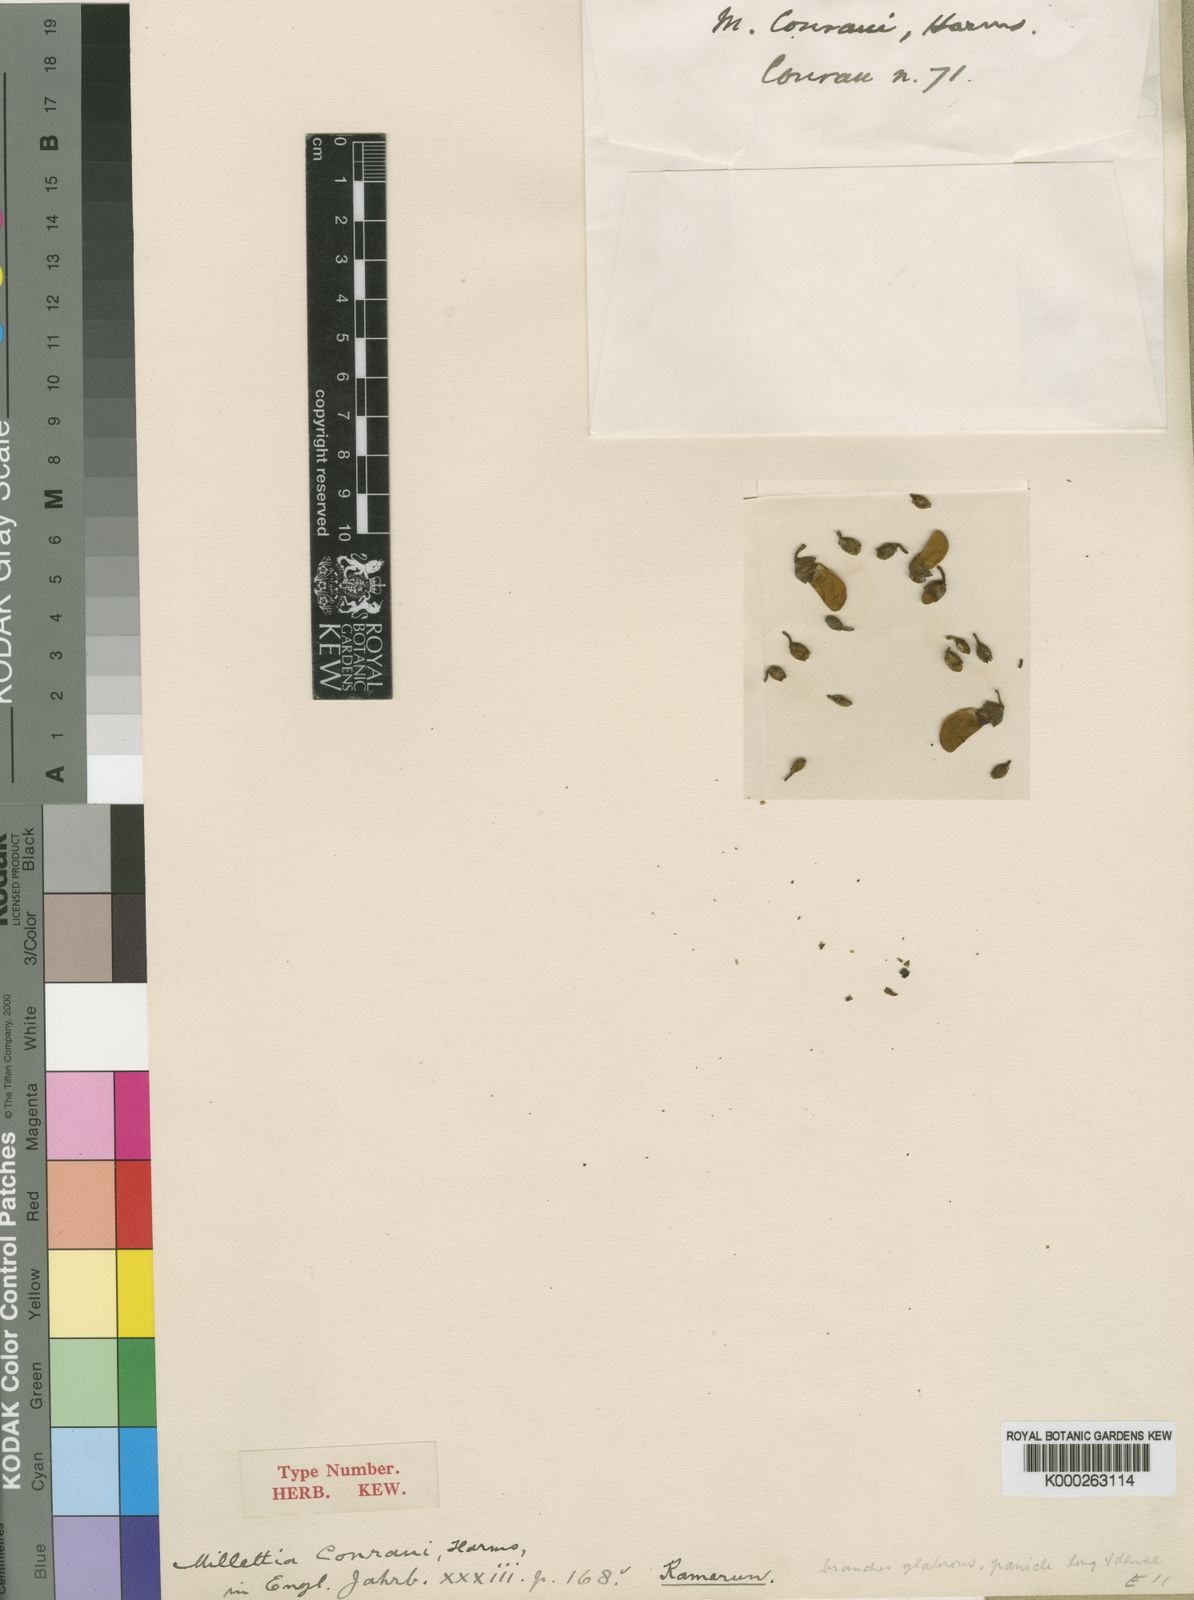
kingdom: Plantae
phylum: Tracheophyta
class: Magnoliopsida
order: Fabales
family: Fabaceae
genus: Millettia
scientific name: Millettia conraui
